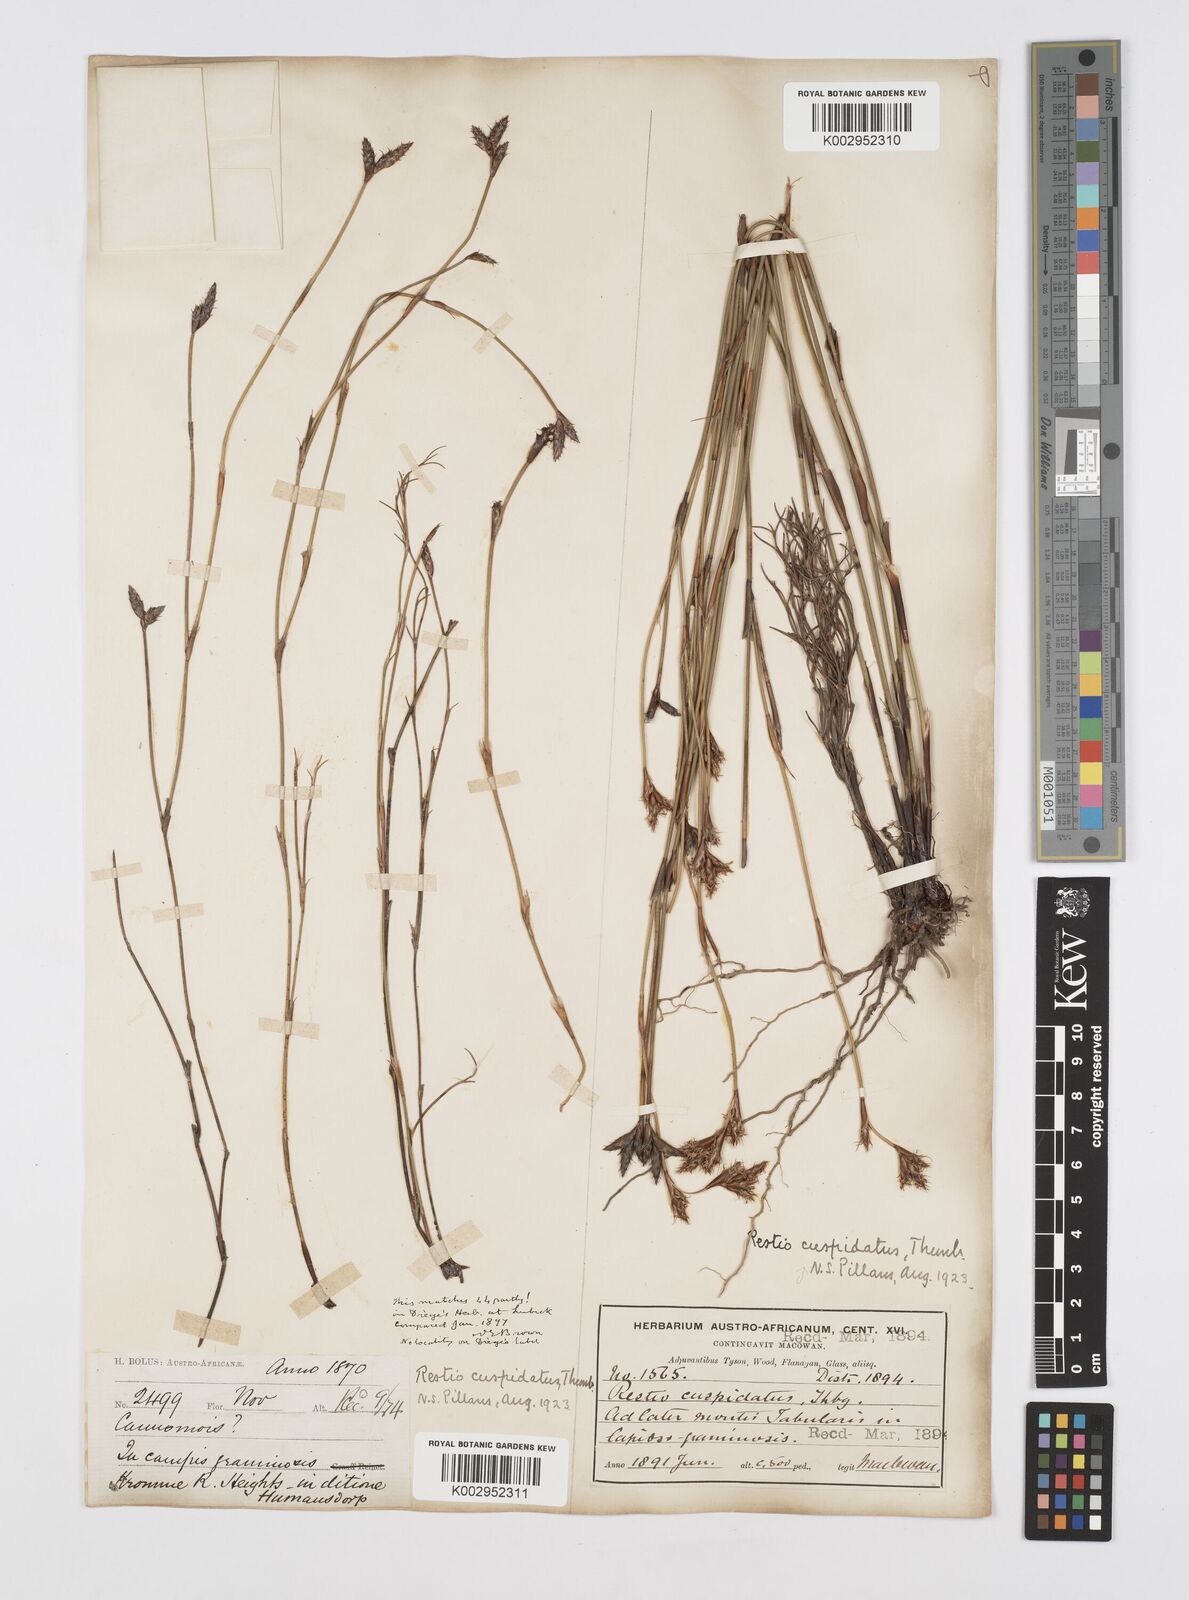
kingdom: Plantae
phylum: Tracheophyta
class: Liliopsida
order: Poales
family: Restionaceae
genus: Restio
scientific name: Restio capensis
